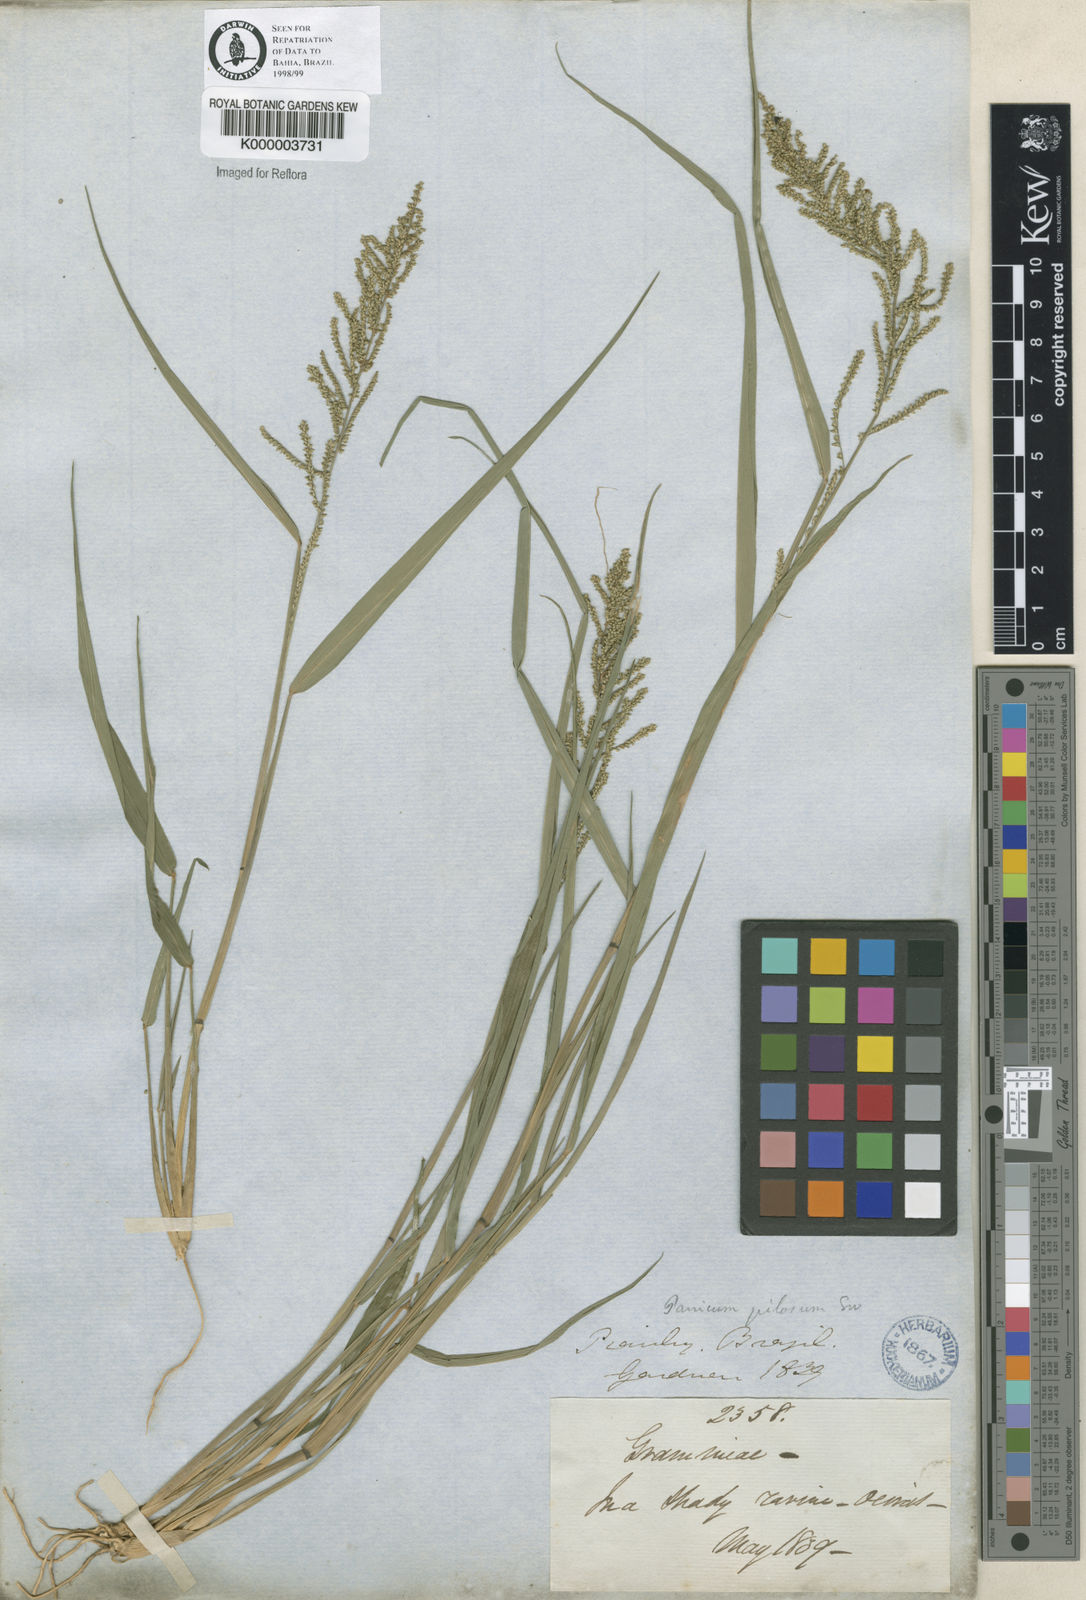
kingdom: Plantae
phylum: Tracheophyta
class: Liliopsida
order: Poales
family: Poaceae
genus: Rugoloa
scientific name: Rugoloa pilosa
